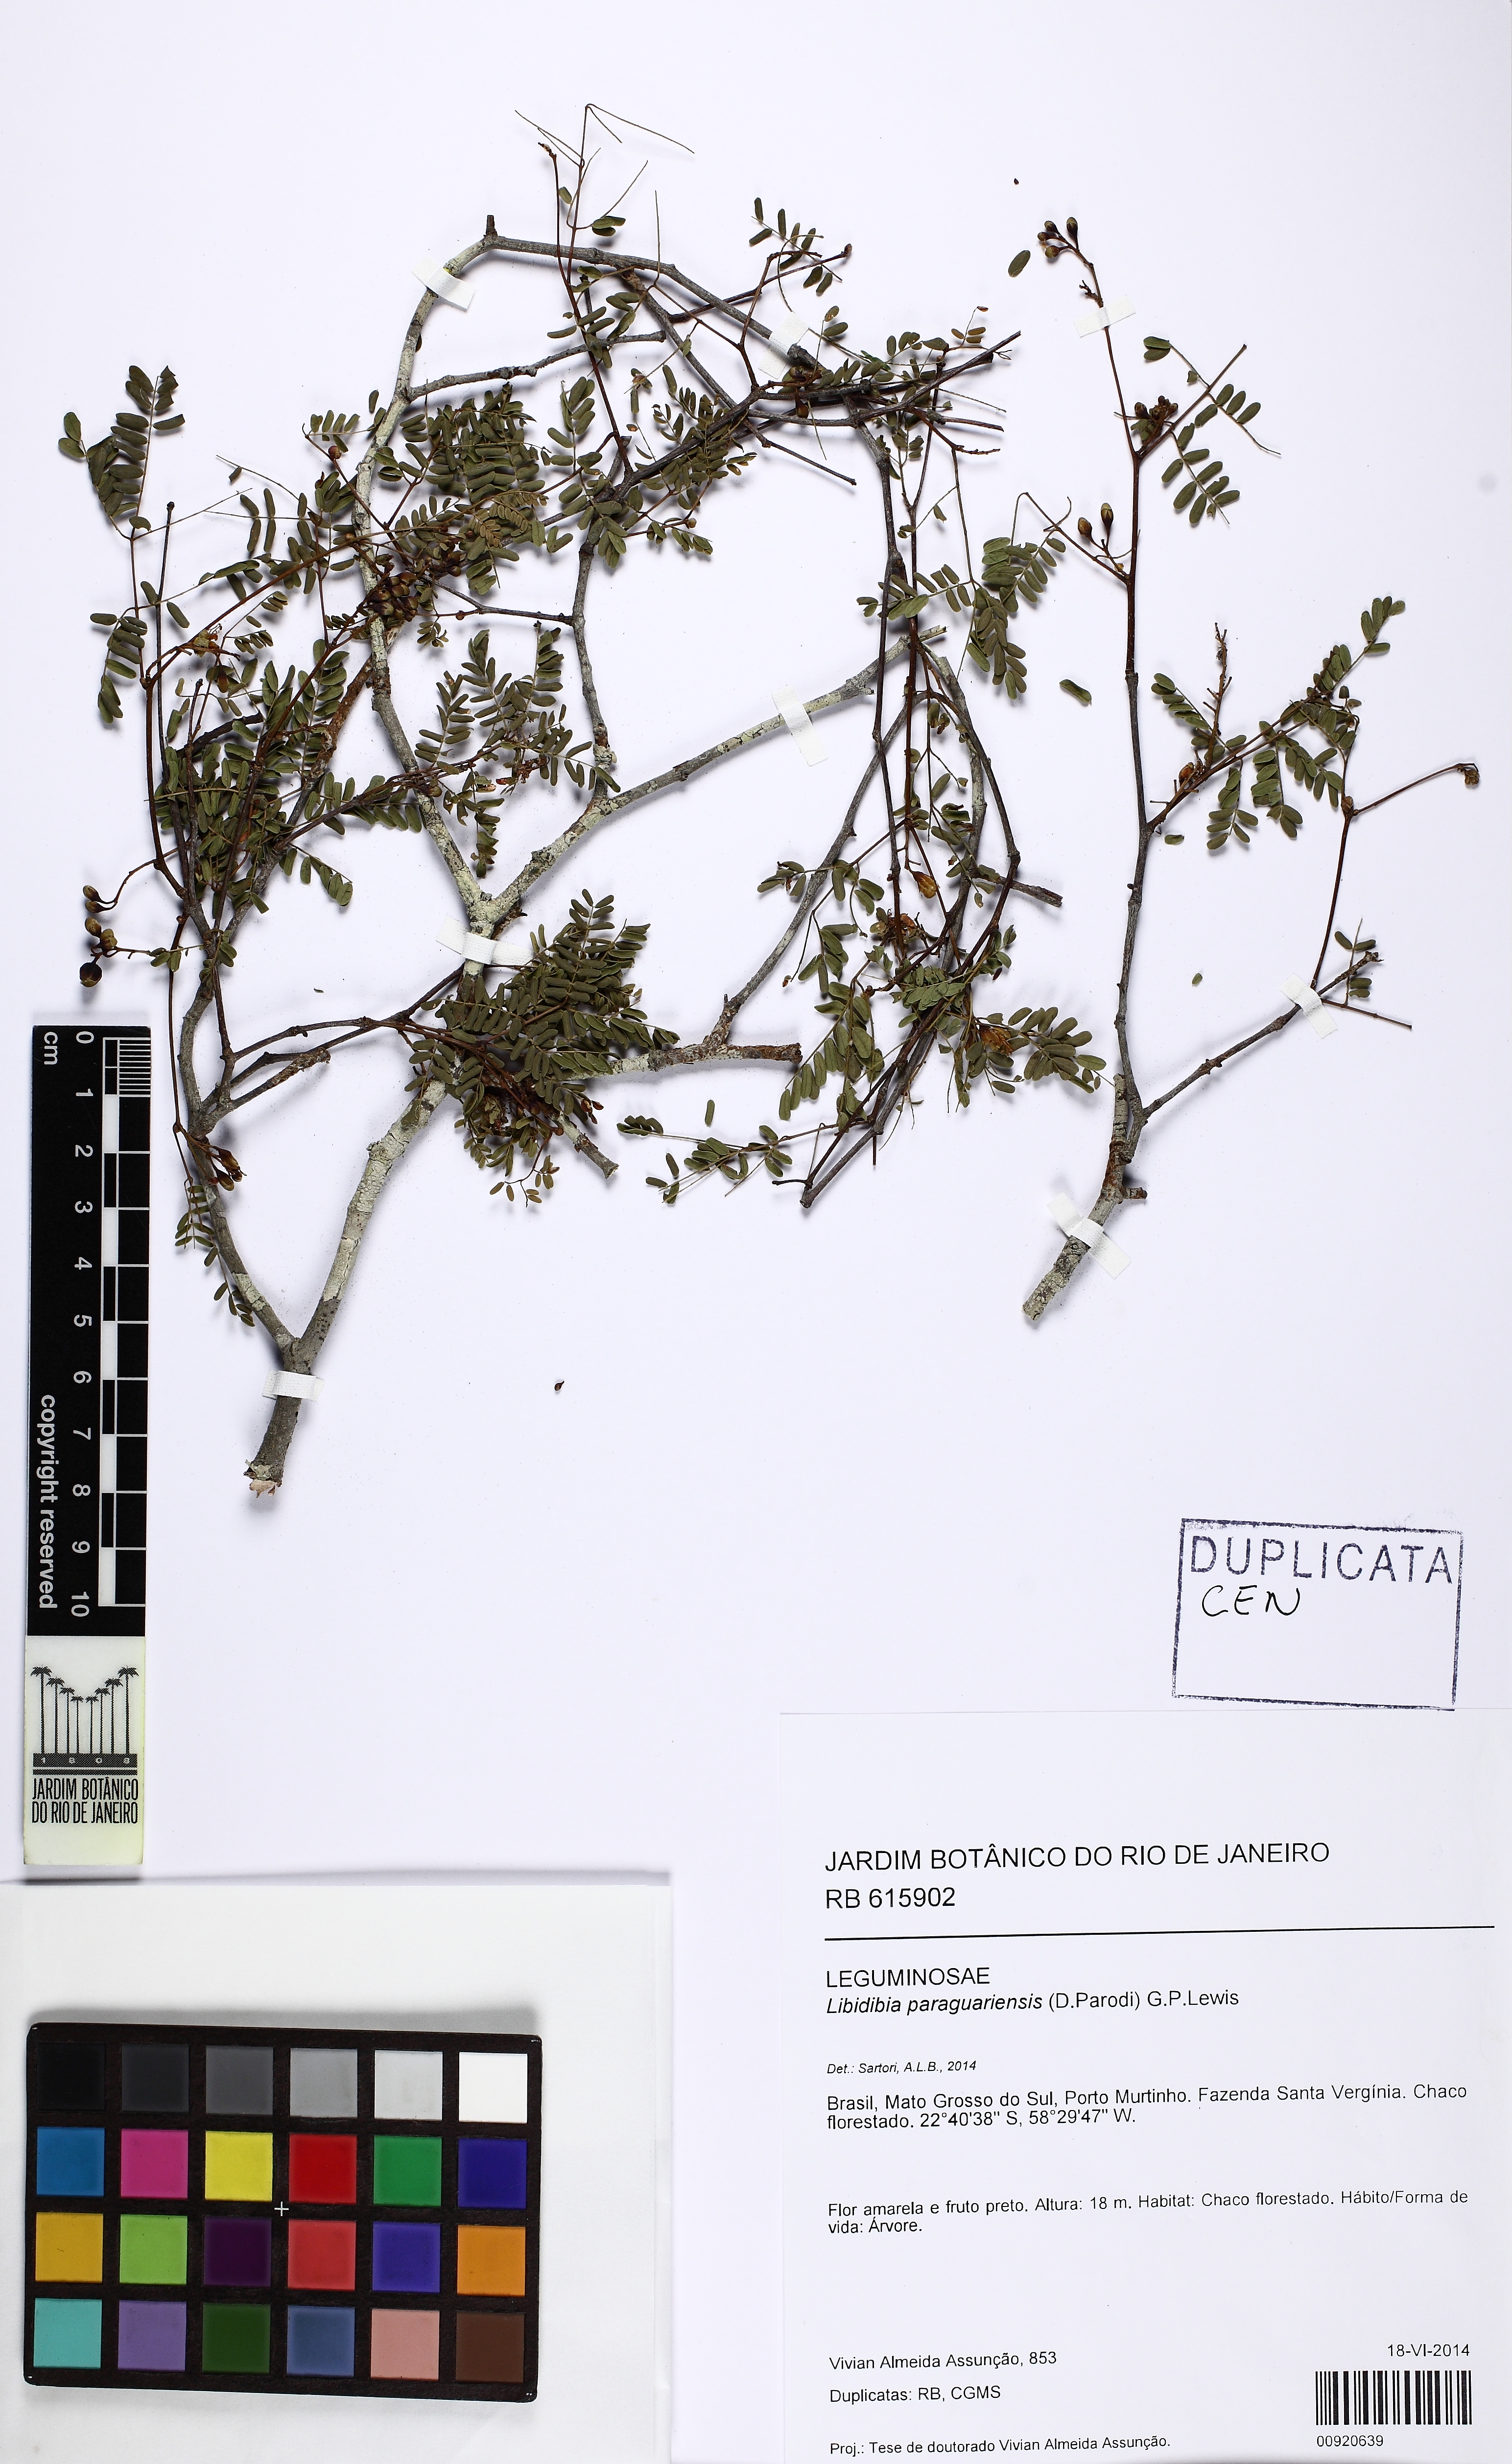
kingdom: Plantae
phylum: Tracheophyta
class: Magnoliopsida
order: Fabales
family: Fabaceae
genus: Libidibia
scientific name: Libidibia paraguariensis
